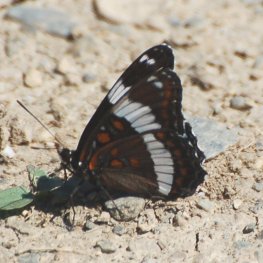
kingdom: Animalia
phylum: Arthropoda
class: Insecta
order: Lepidoptera
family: Nymphalidae
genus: Limenitis
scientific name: Limenitis arthemis
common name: Red-spotted Admiral
